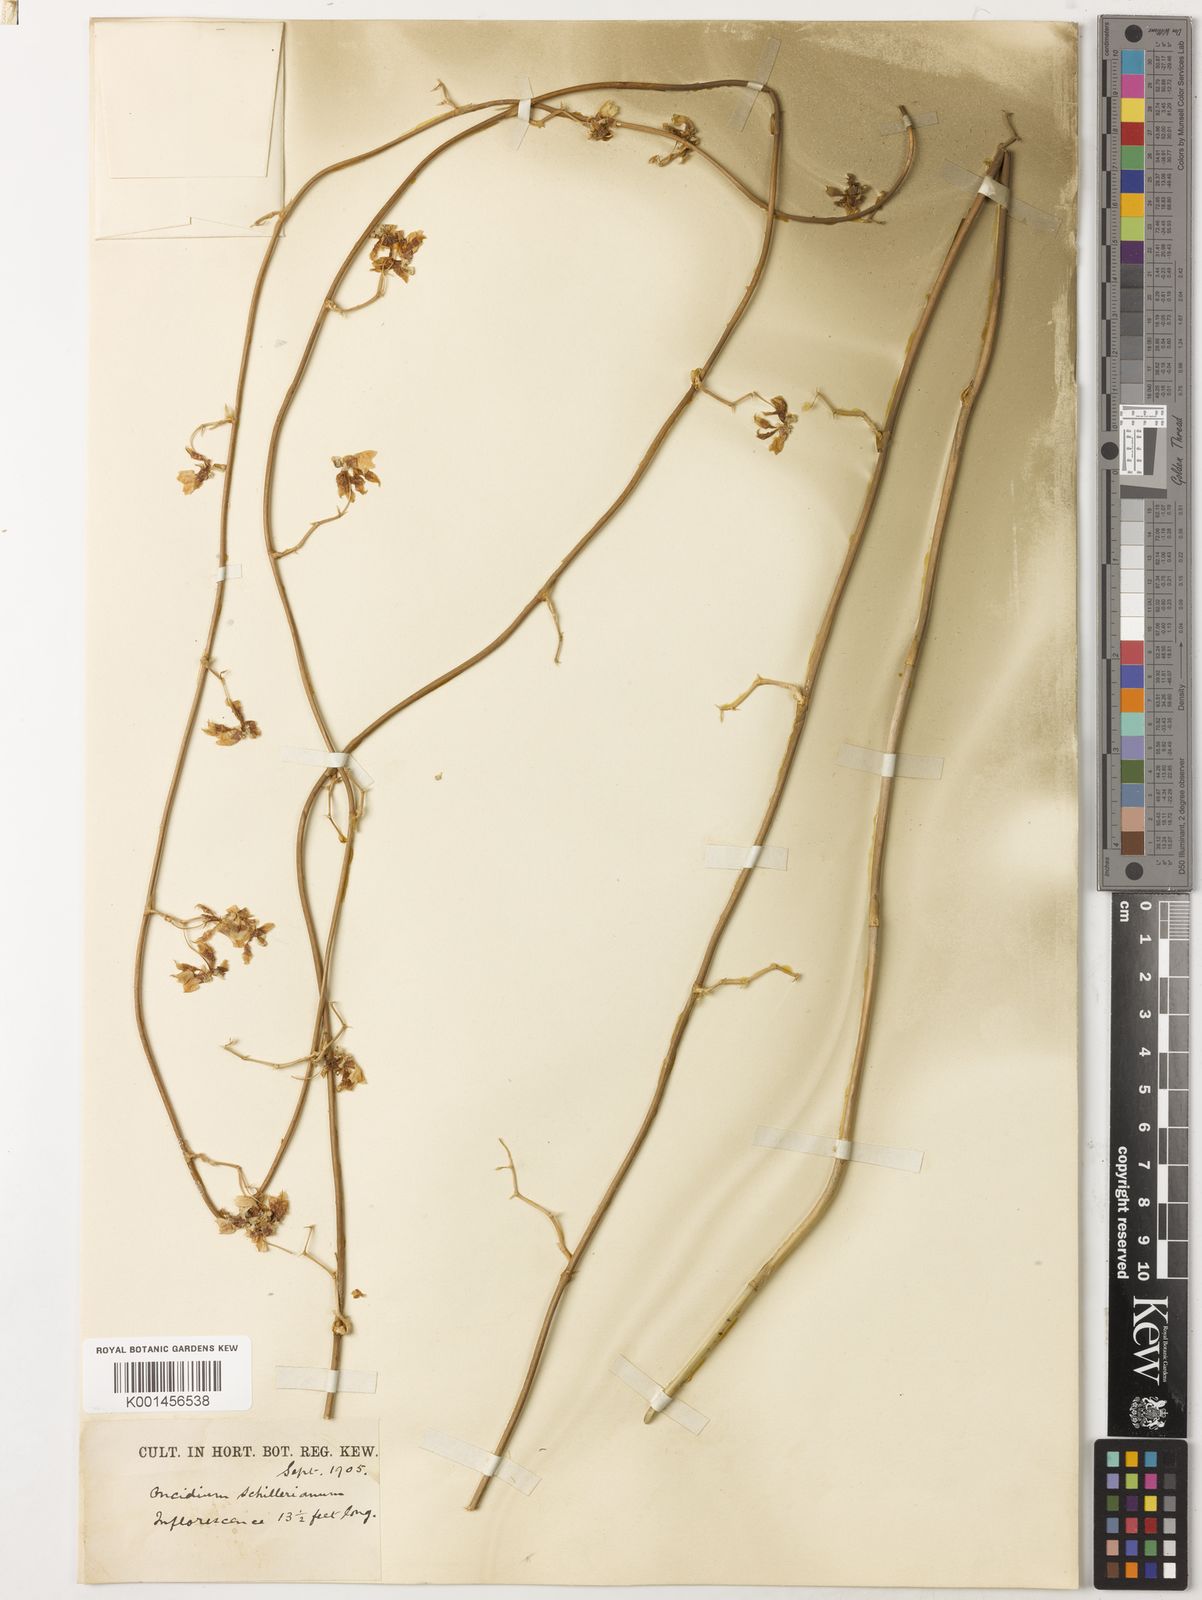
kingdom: Plantae
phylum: Tracheophyta
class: Liliopsida
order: Asparagales
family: Orchidaceae
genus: Oncidium
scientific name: Oncidium schillerianum
